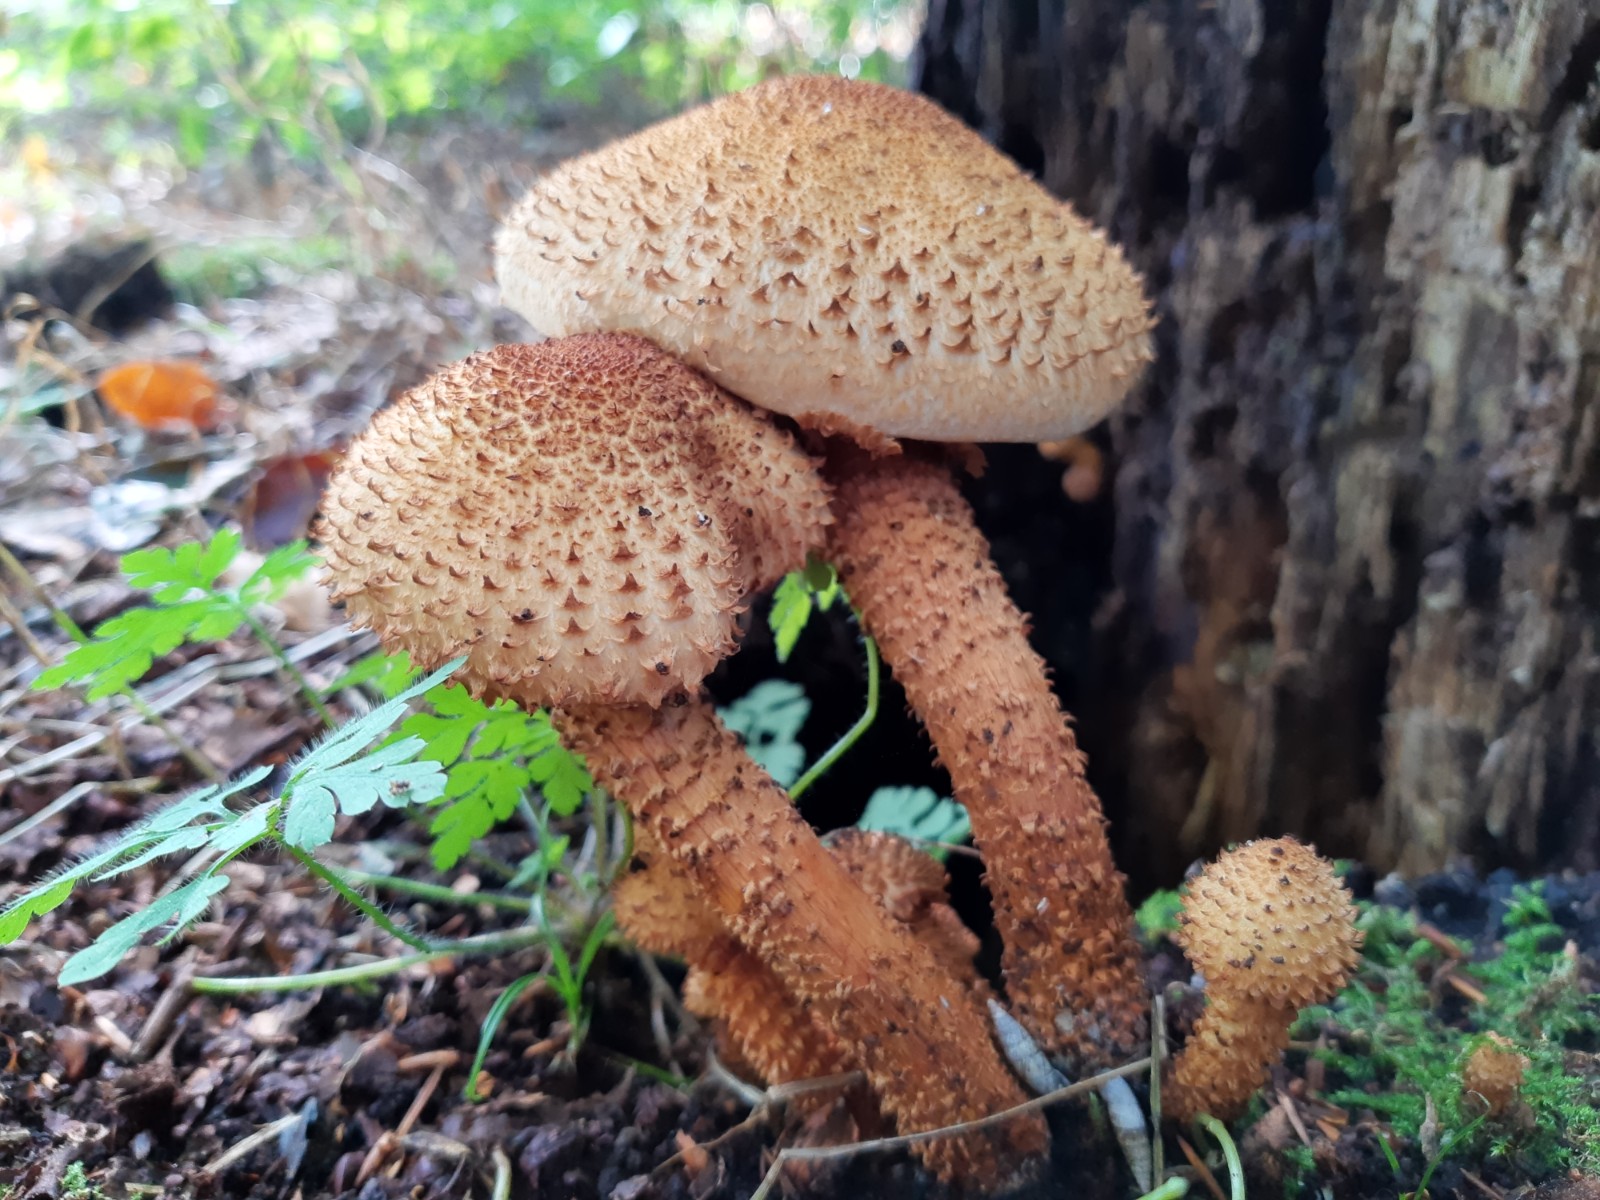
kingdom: Fungi
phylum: Basidiomycota
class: Agaricomycetes
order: Agaricales
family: Strophariaceae
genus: Pholiota
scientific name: Pholiota squarrosa
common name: krumskællet skælhat
